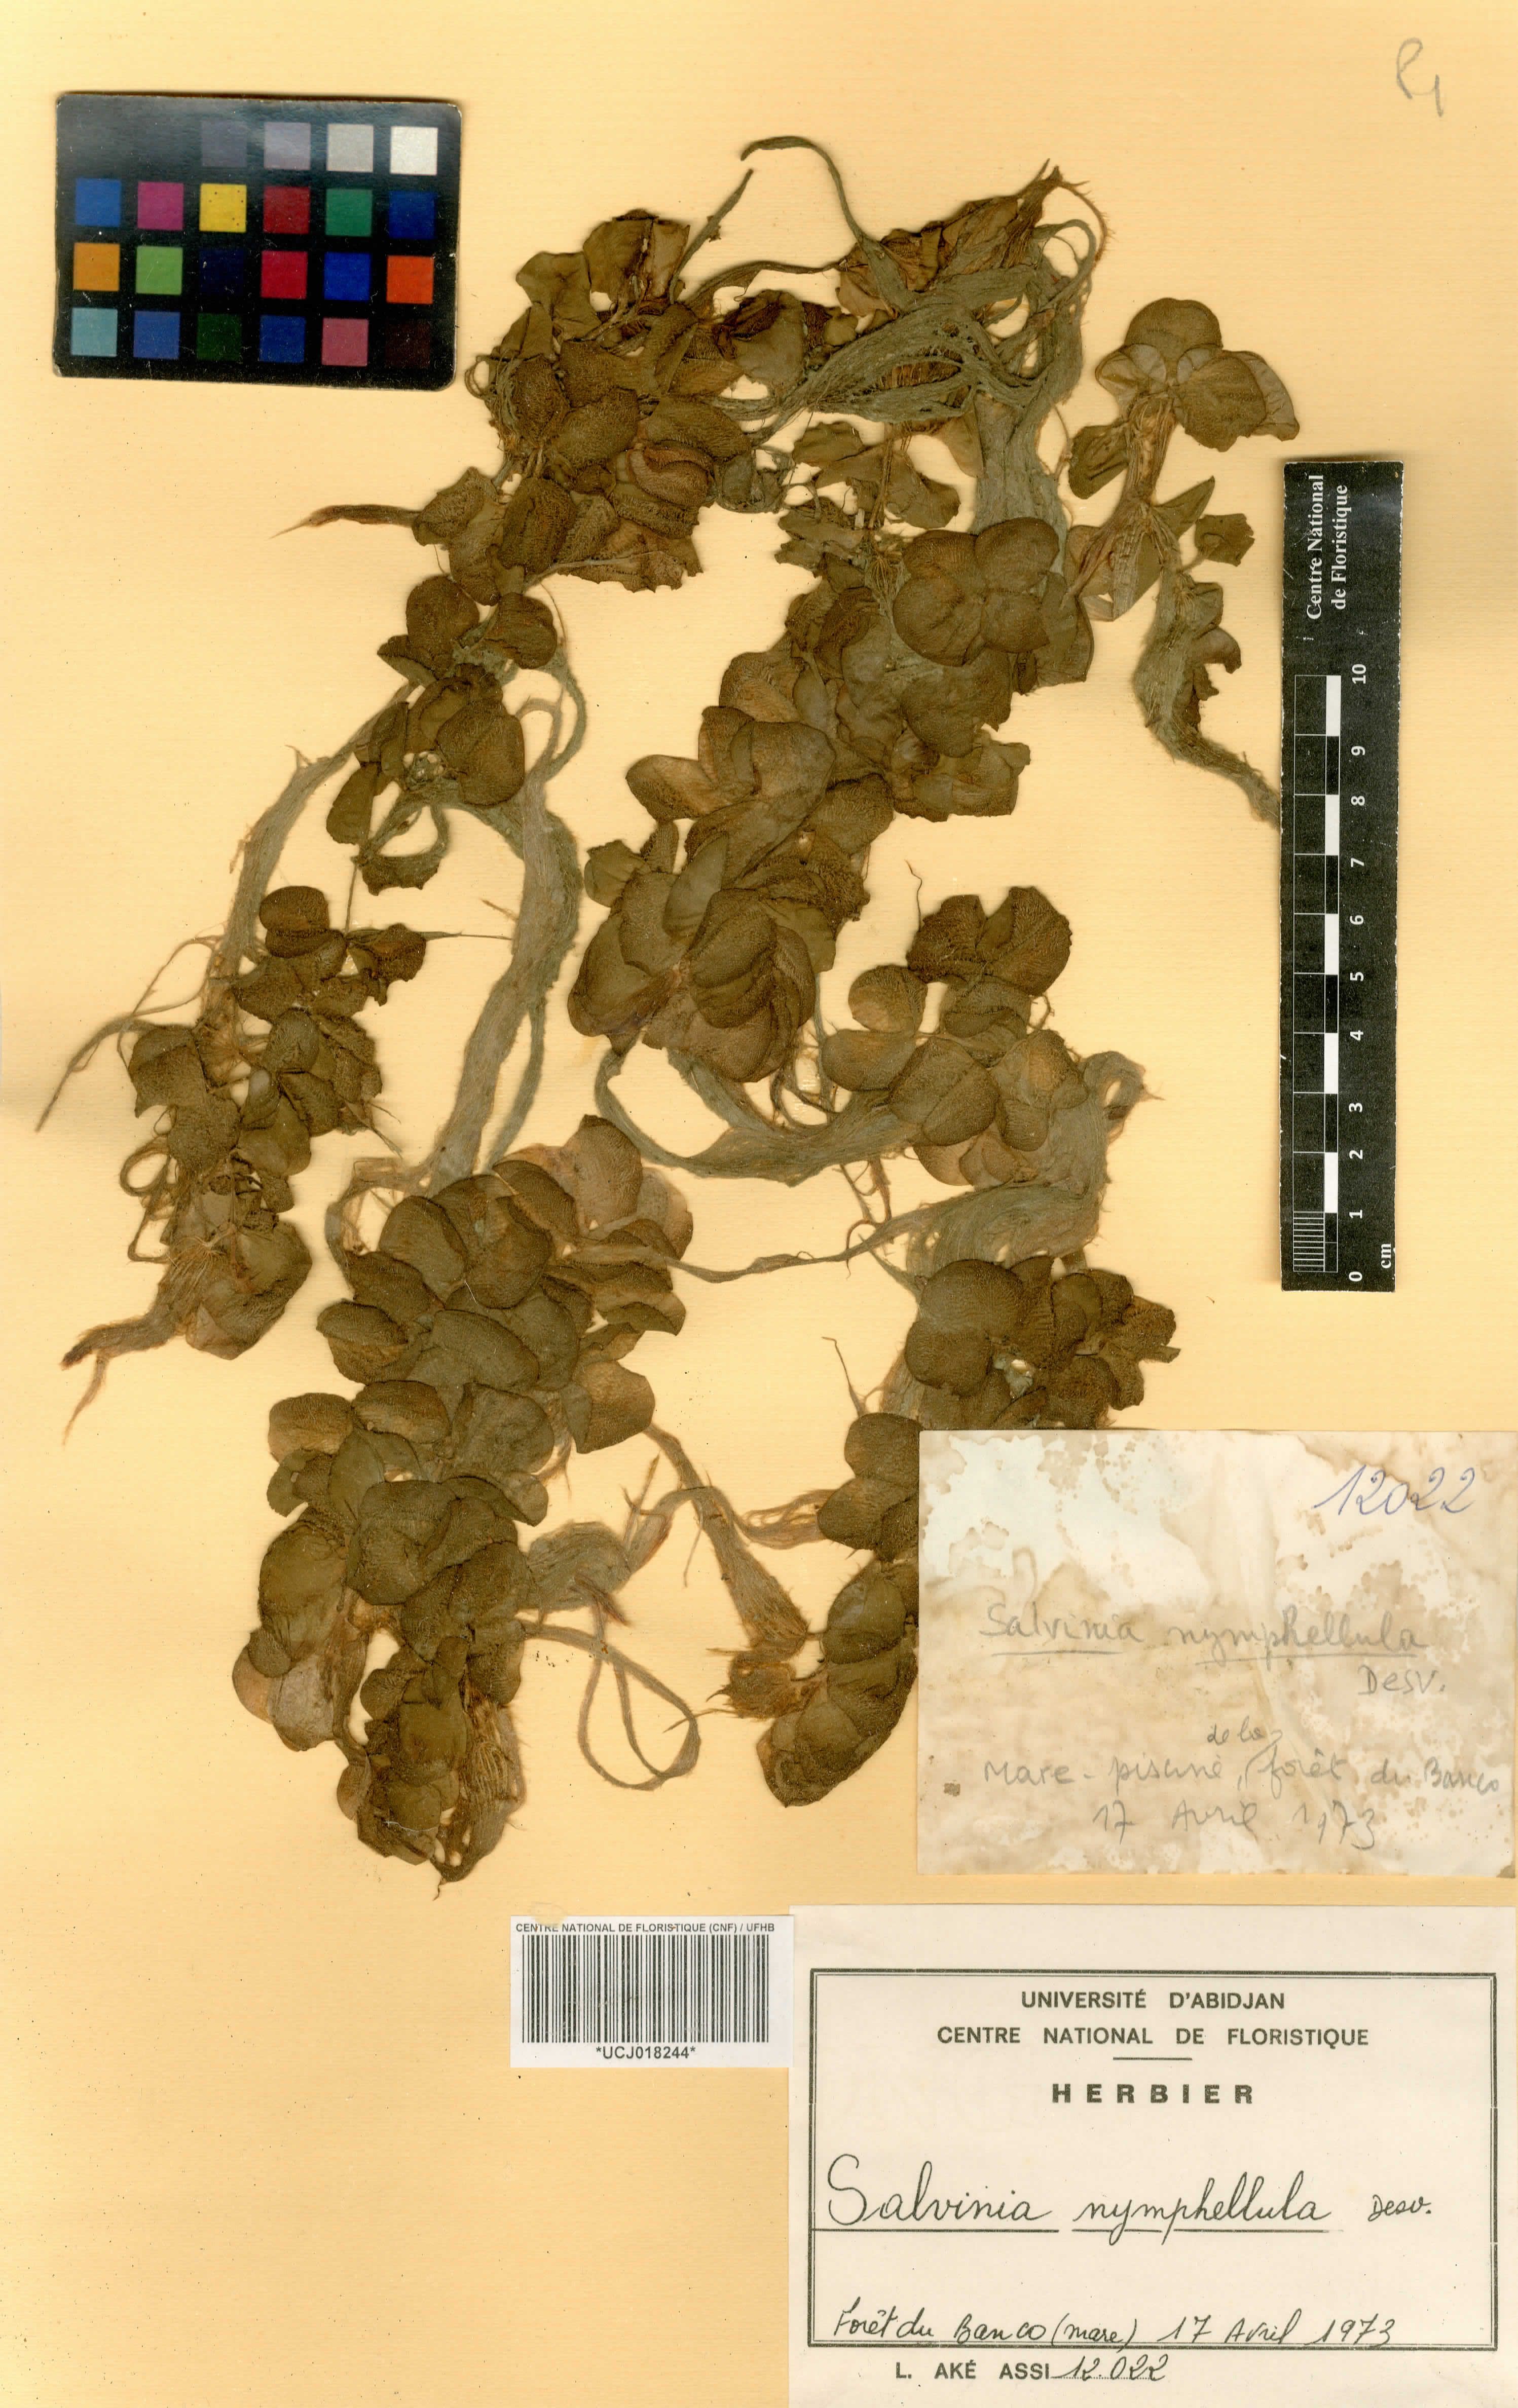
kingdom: Plantae
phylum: Tracheophyta
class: Polypodiopsida
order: Salviniales
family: Salviniaceae
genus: Salvinia
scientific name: Salvinia nymphellula
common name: Floating fern
